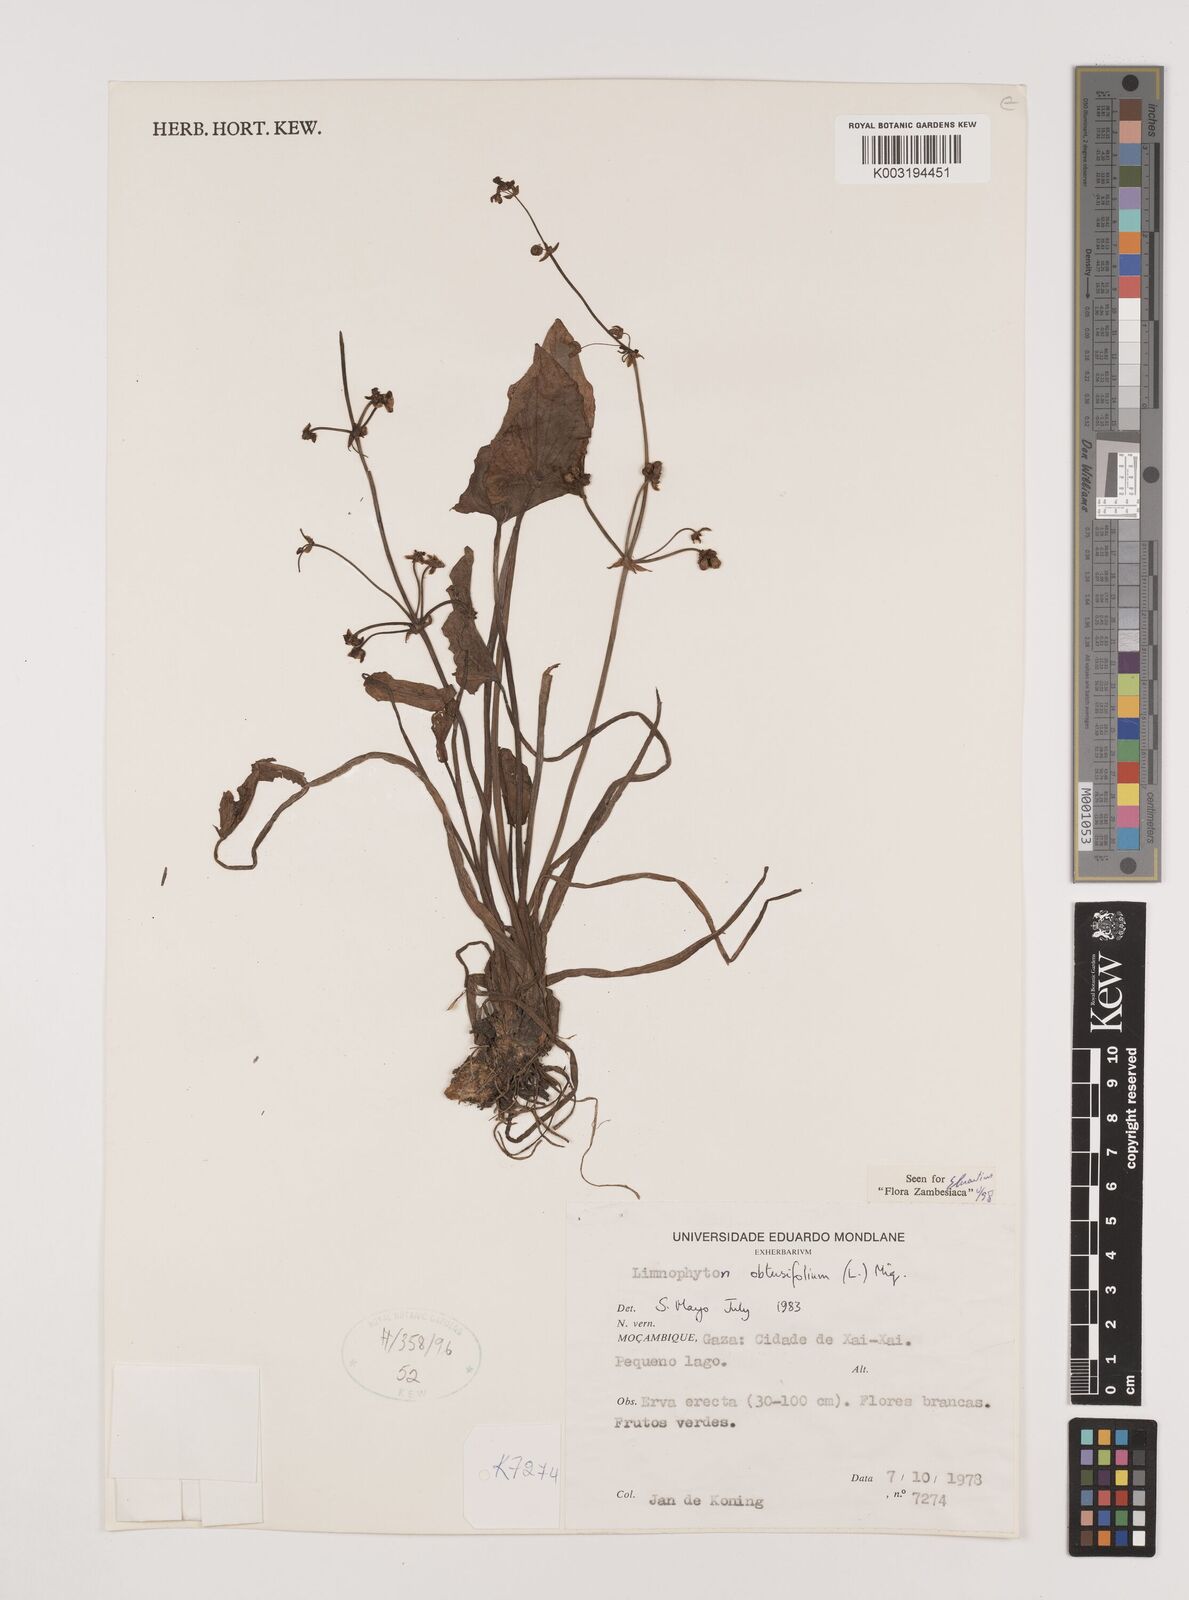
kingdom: Plantae
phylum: Tracheophyta
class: Liliopsida
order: Alismatales
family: Alismataceae
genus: Limnophyton
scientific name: Limnophyton obtusifolium
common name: Arrow head
